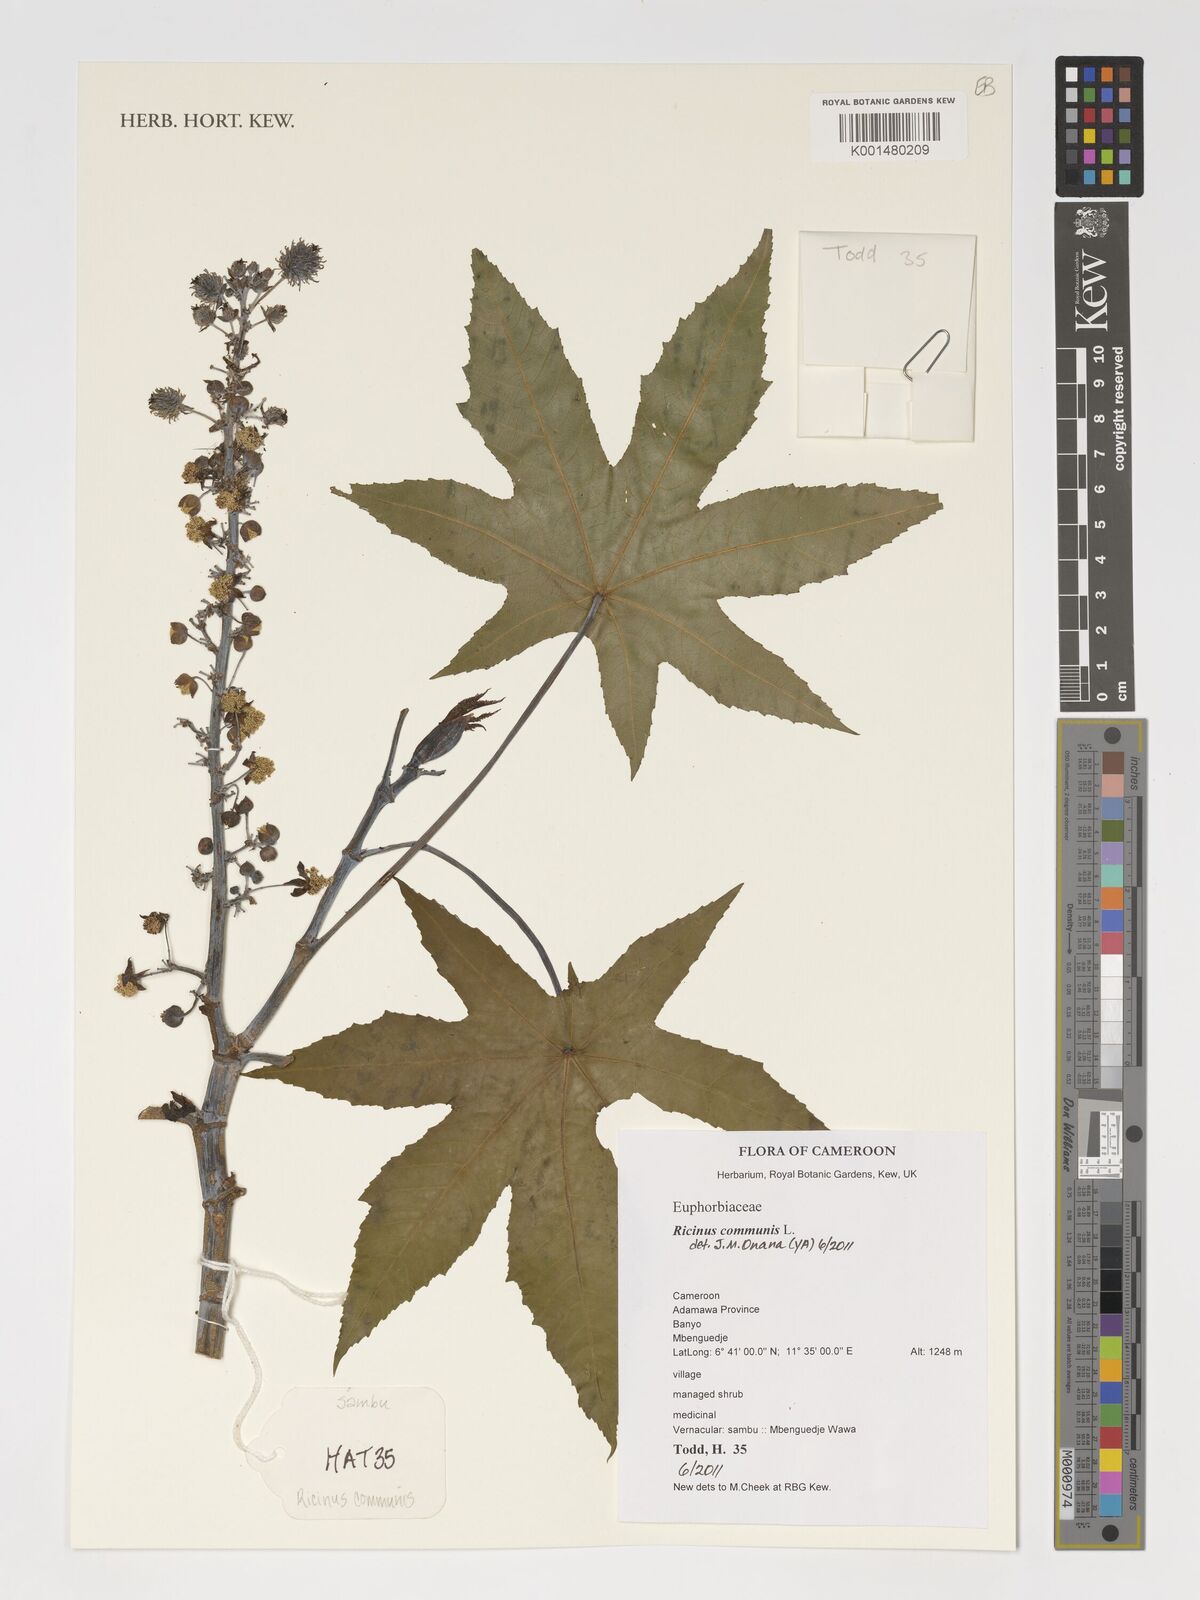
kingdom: Plantae
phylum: Tracheophyta
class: Magnoliopsida
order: Malpighiales
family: Euphorbiaceae
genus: Ricinus
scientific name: Ricinus communis
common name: Castor-oil-plant
